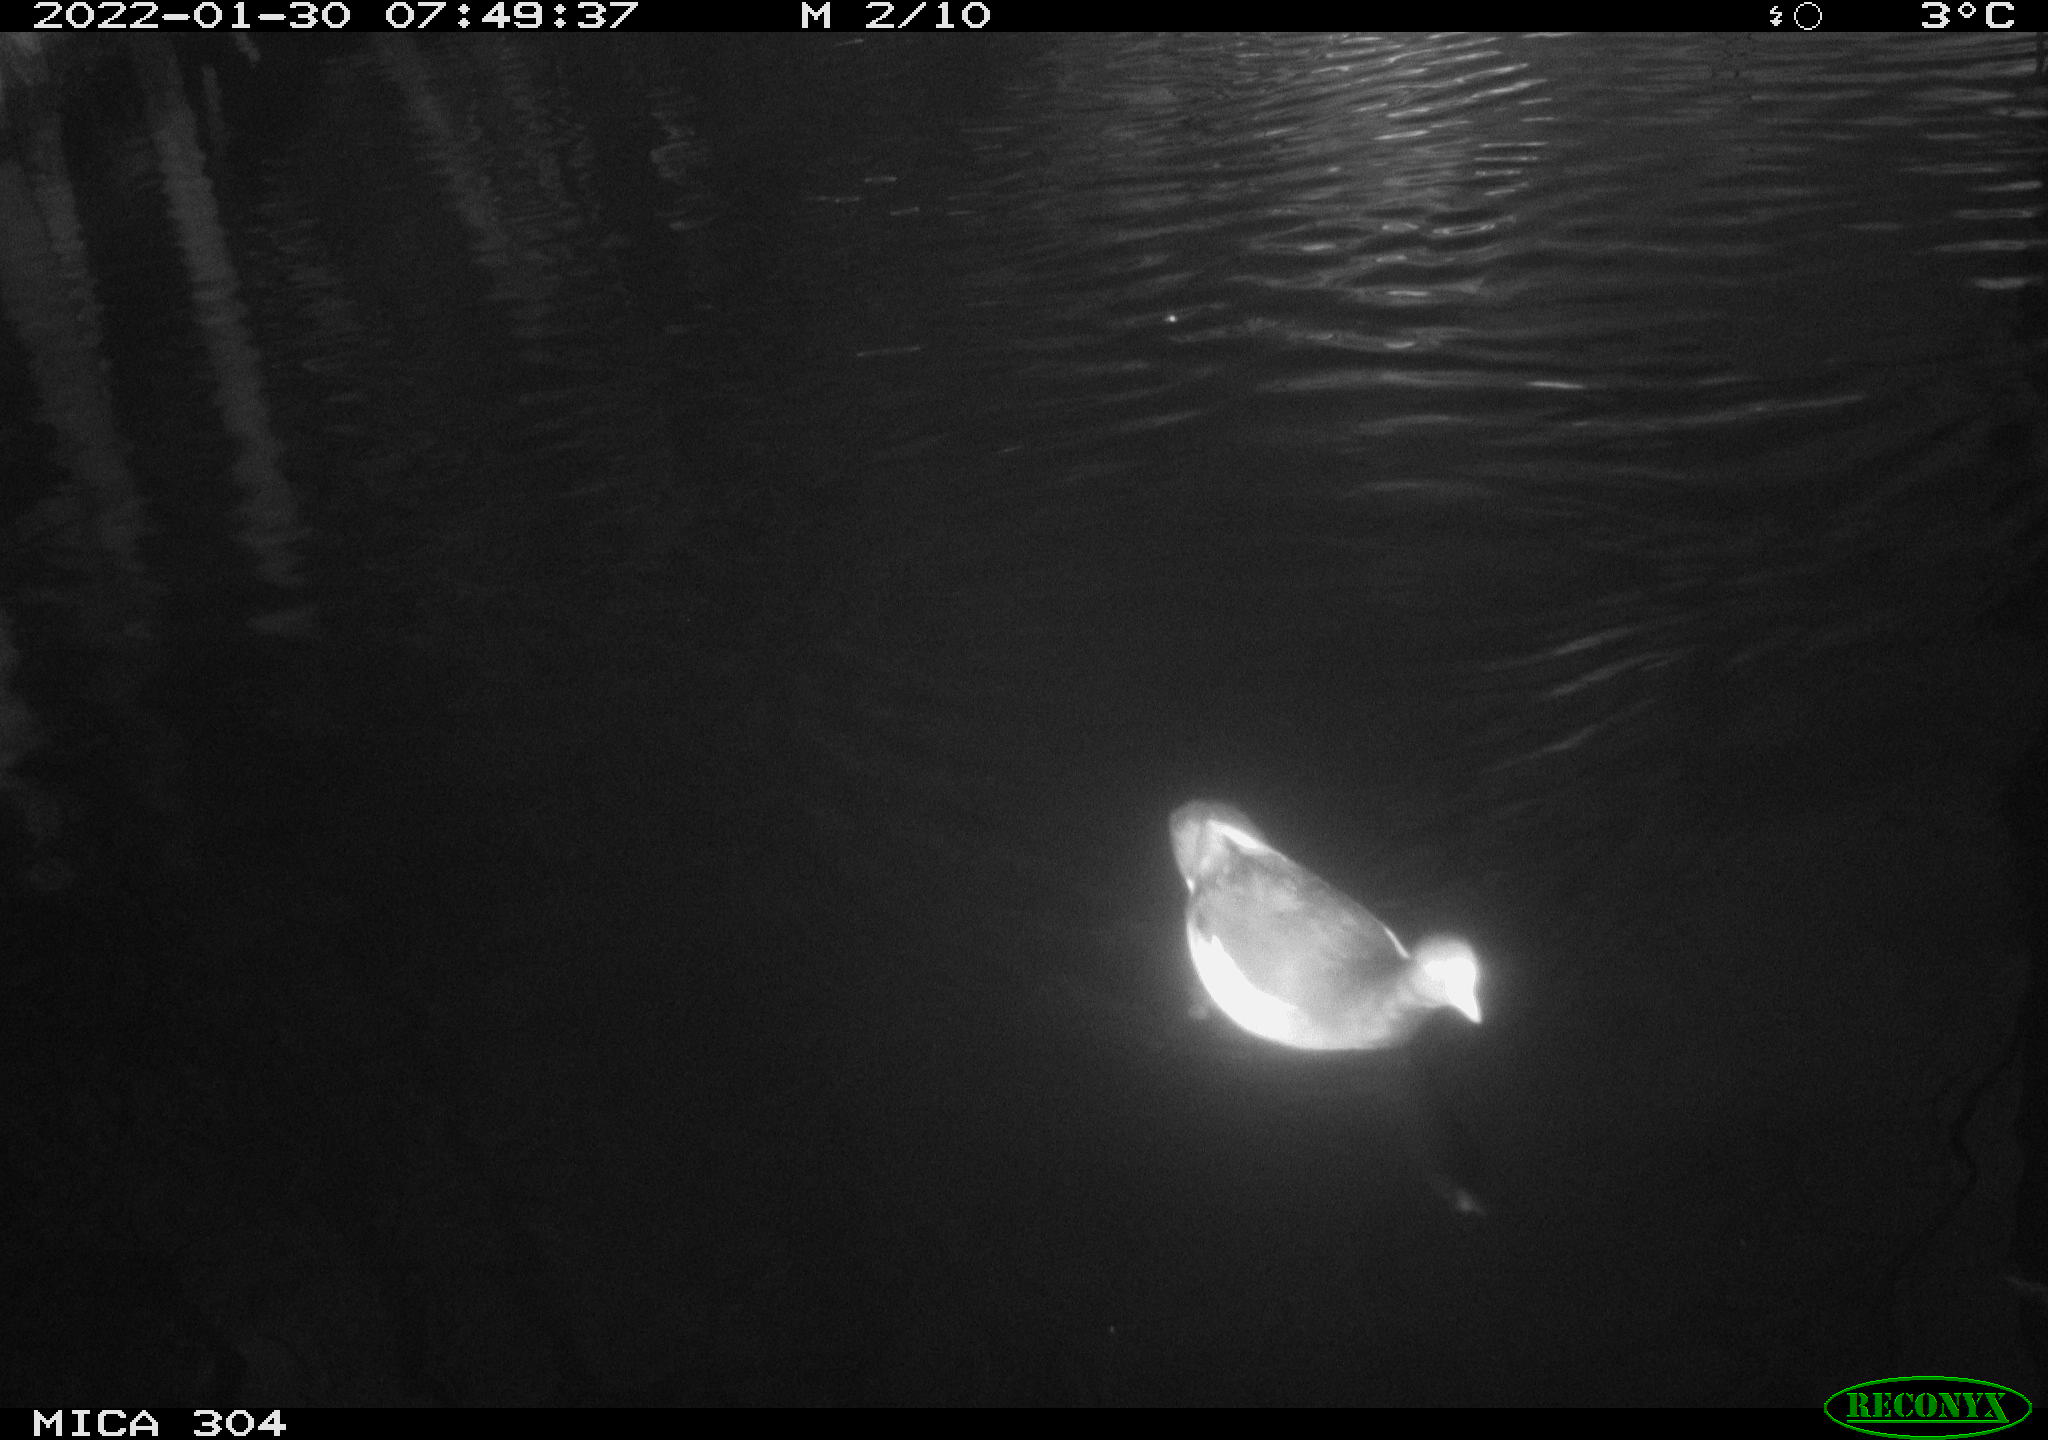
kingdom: Animalia
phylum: Chordata
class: Aves
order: Anseriformes
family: Anatidae
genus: Anas
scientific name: Anas
